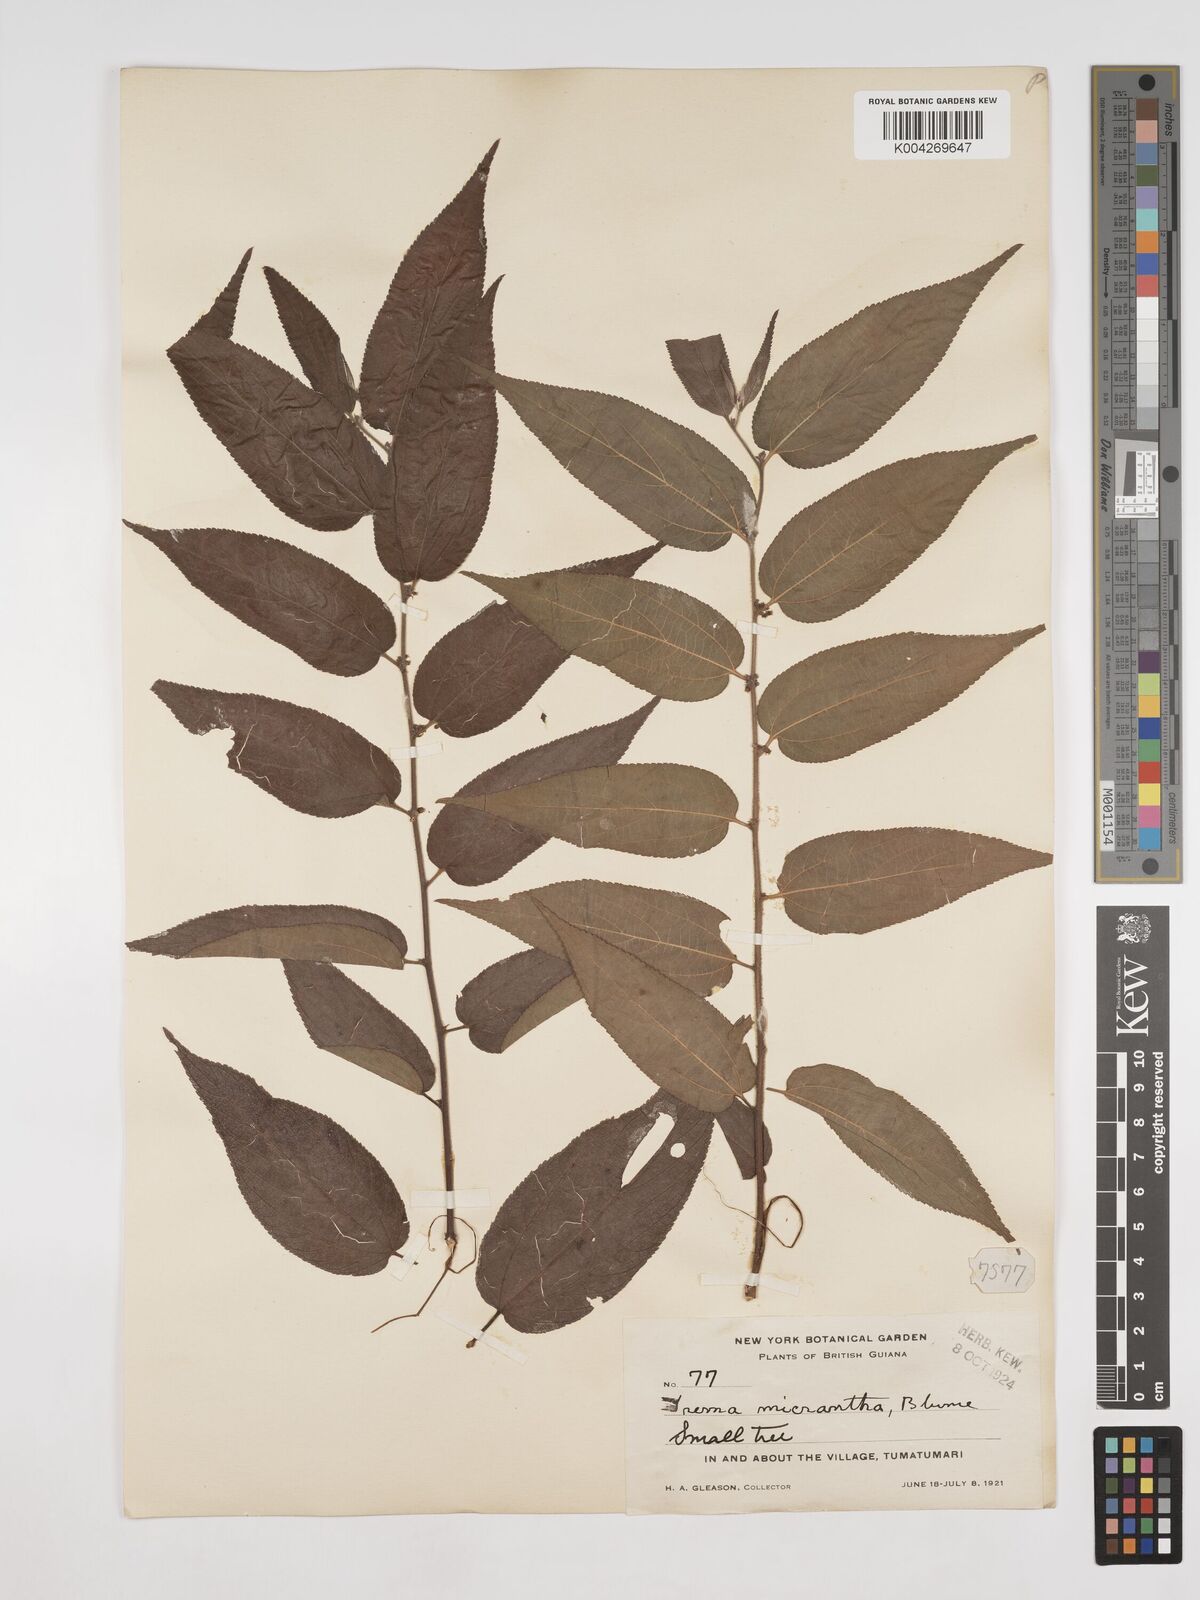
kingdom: Plantae
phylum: Tracheophyta
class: Magnoliopsida
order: Rosales
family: Cannabaceae
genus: Trema
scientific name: Trema micranthum
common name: Jamaican nettletree
